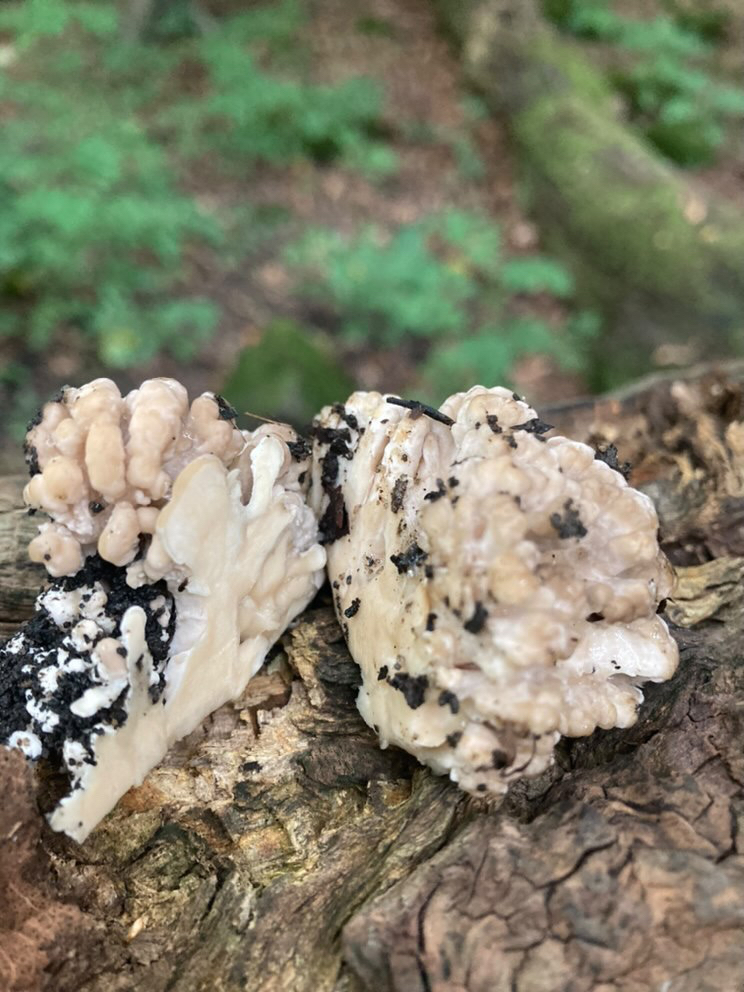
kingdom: Fungi
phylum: Basidiomycota
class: Agaricomycetes
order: Polyporales
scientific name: Polyporales
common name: poresvampordenen
